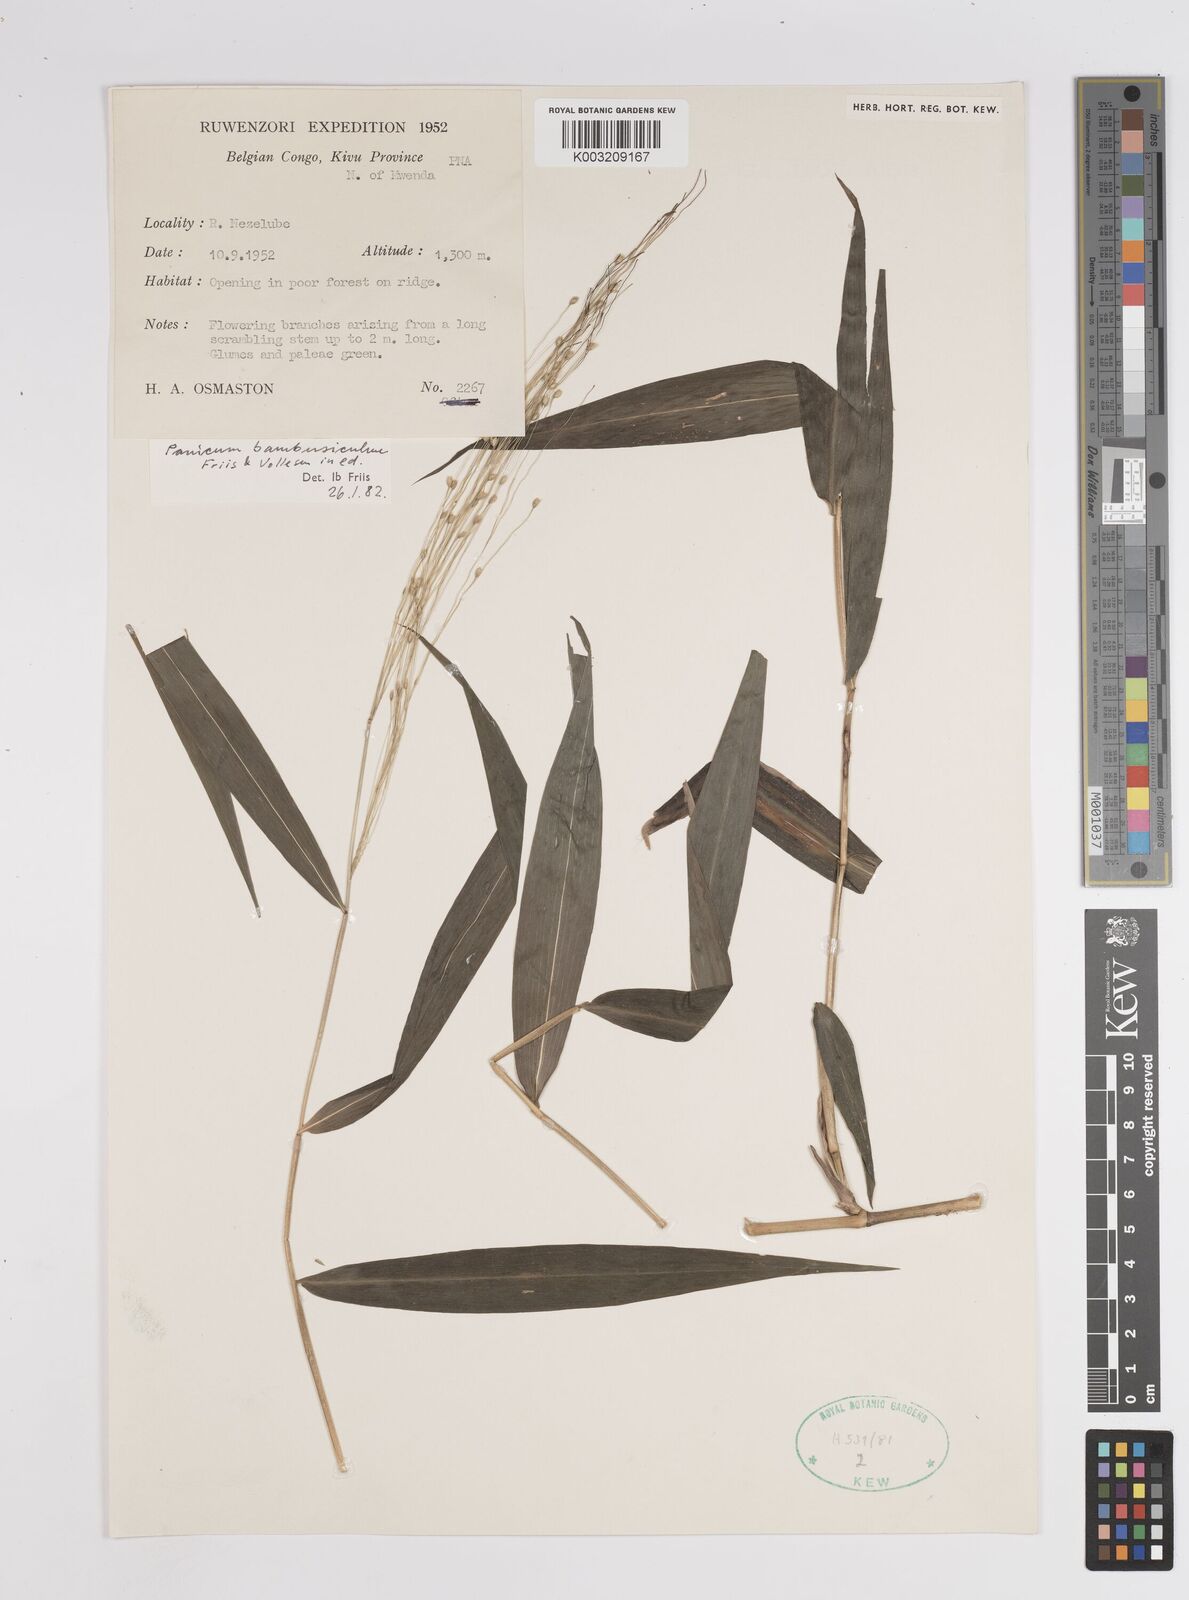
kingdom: Plantae
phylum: Tracheophyta
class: Liliopsida
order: Poales
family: Poaceae
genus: Panicum
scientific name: Panicum brevifolium
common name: Shortleaf panic grass
